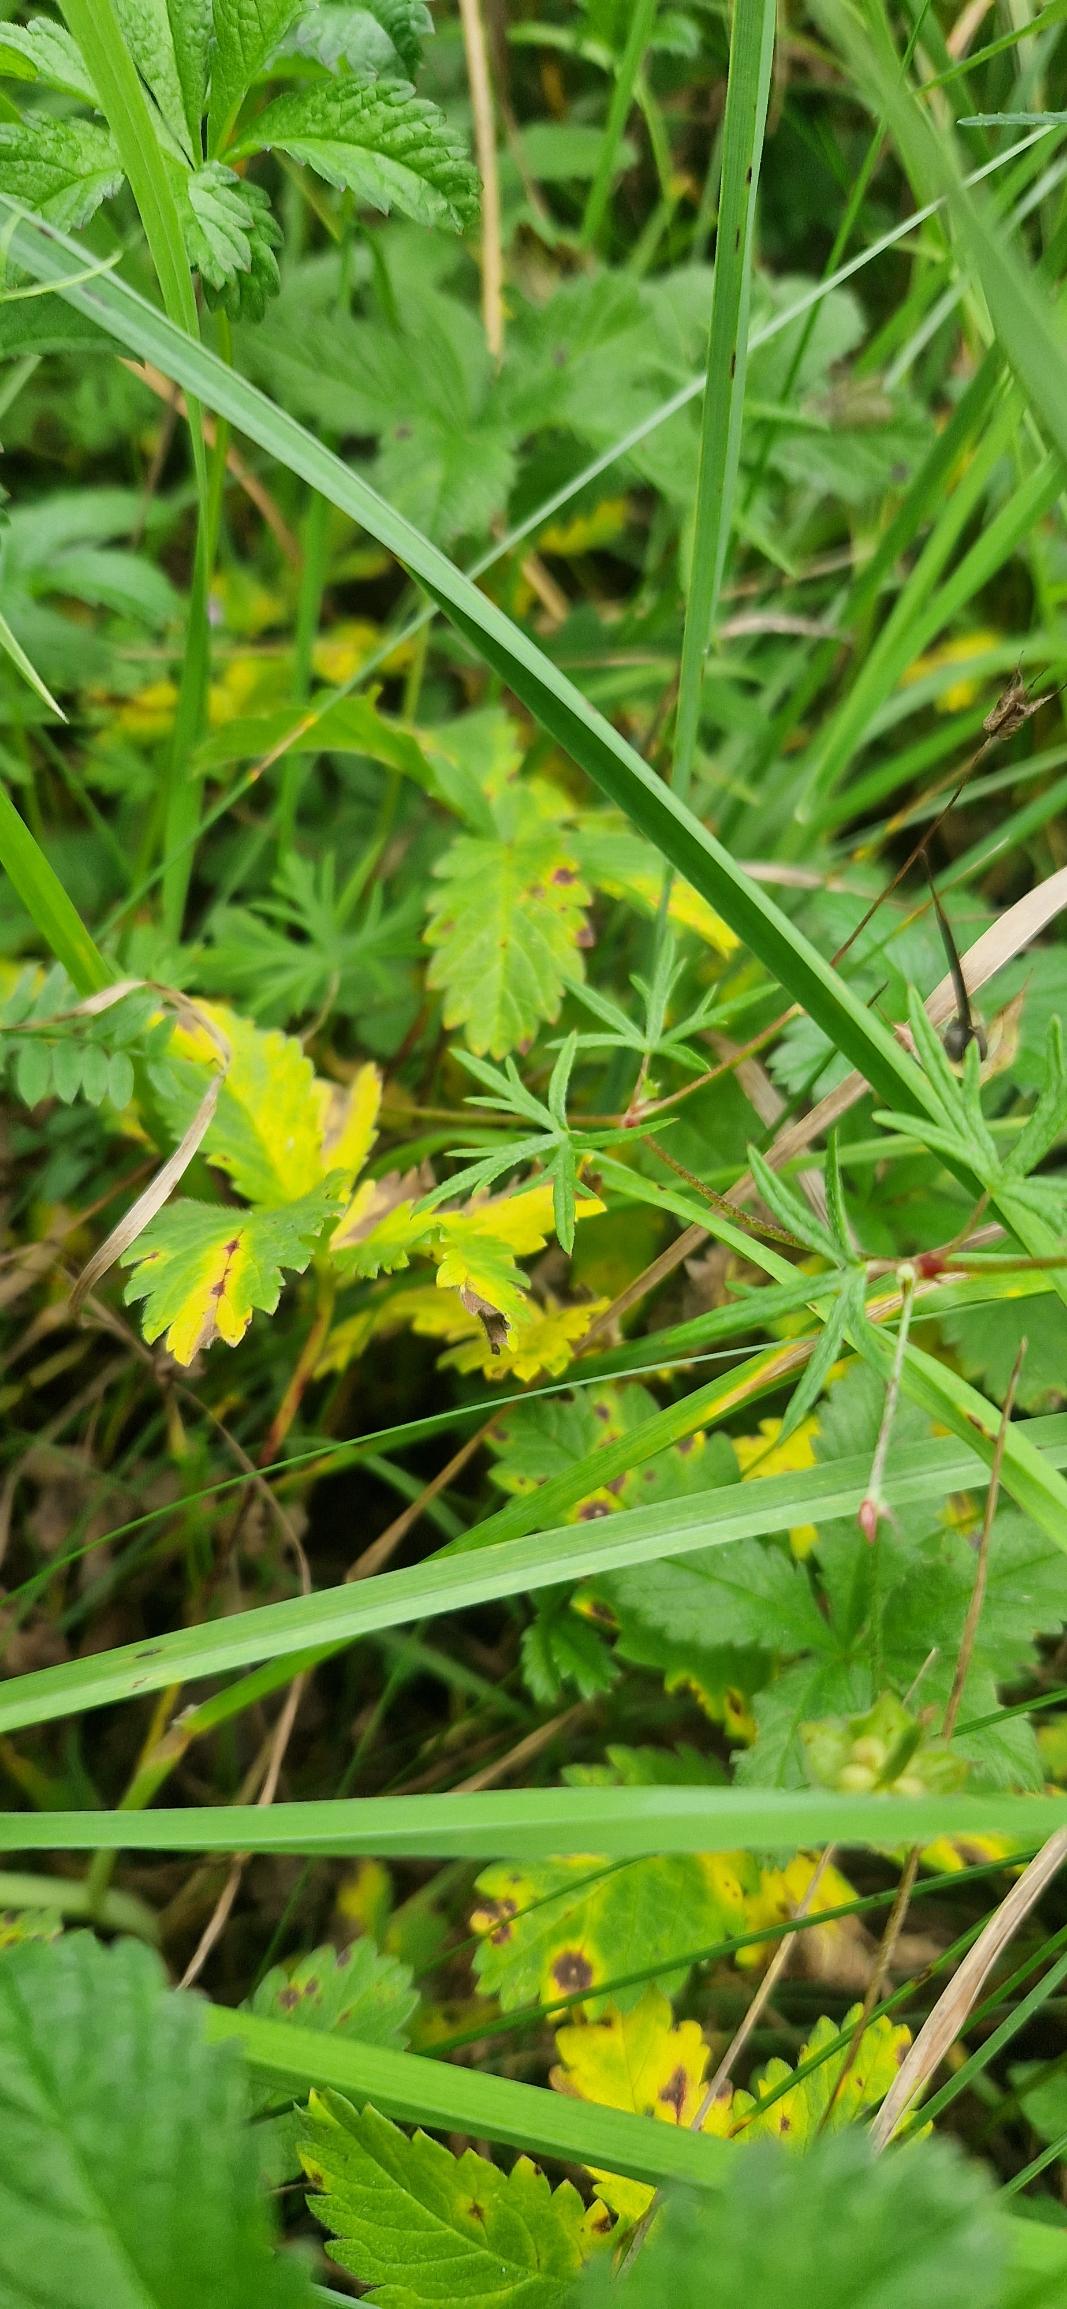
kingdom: Plantae
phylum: Tracheophyta
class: Magnoliopsida
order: Geraniales
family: Geraniaceae
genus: Geranium
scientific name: Geranium columbinum
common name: Storbægret storkenæb
